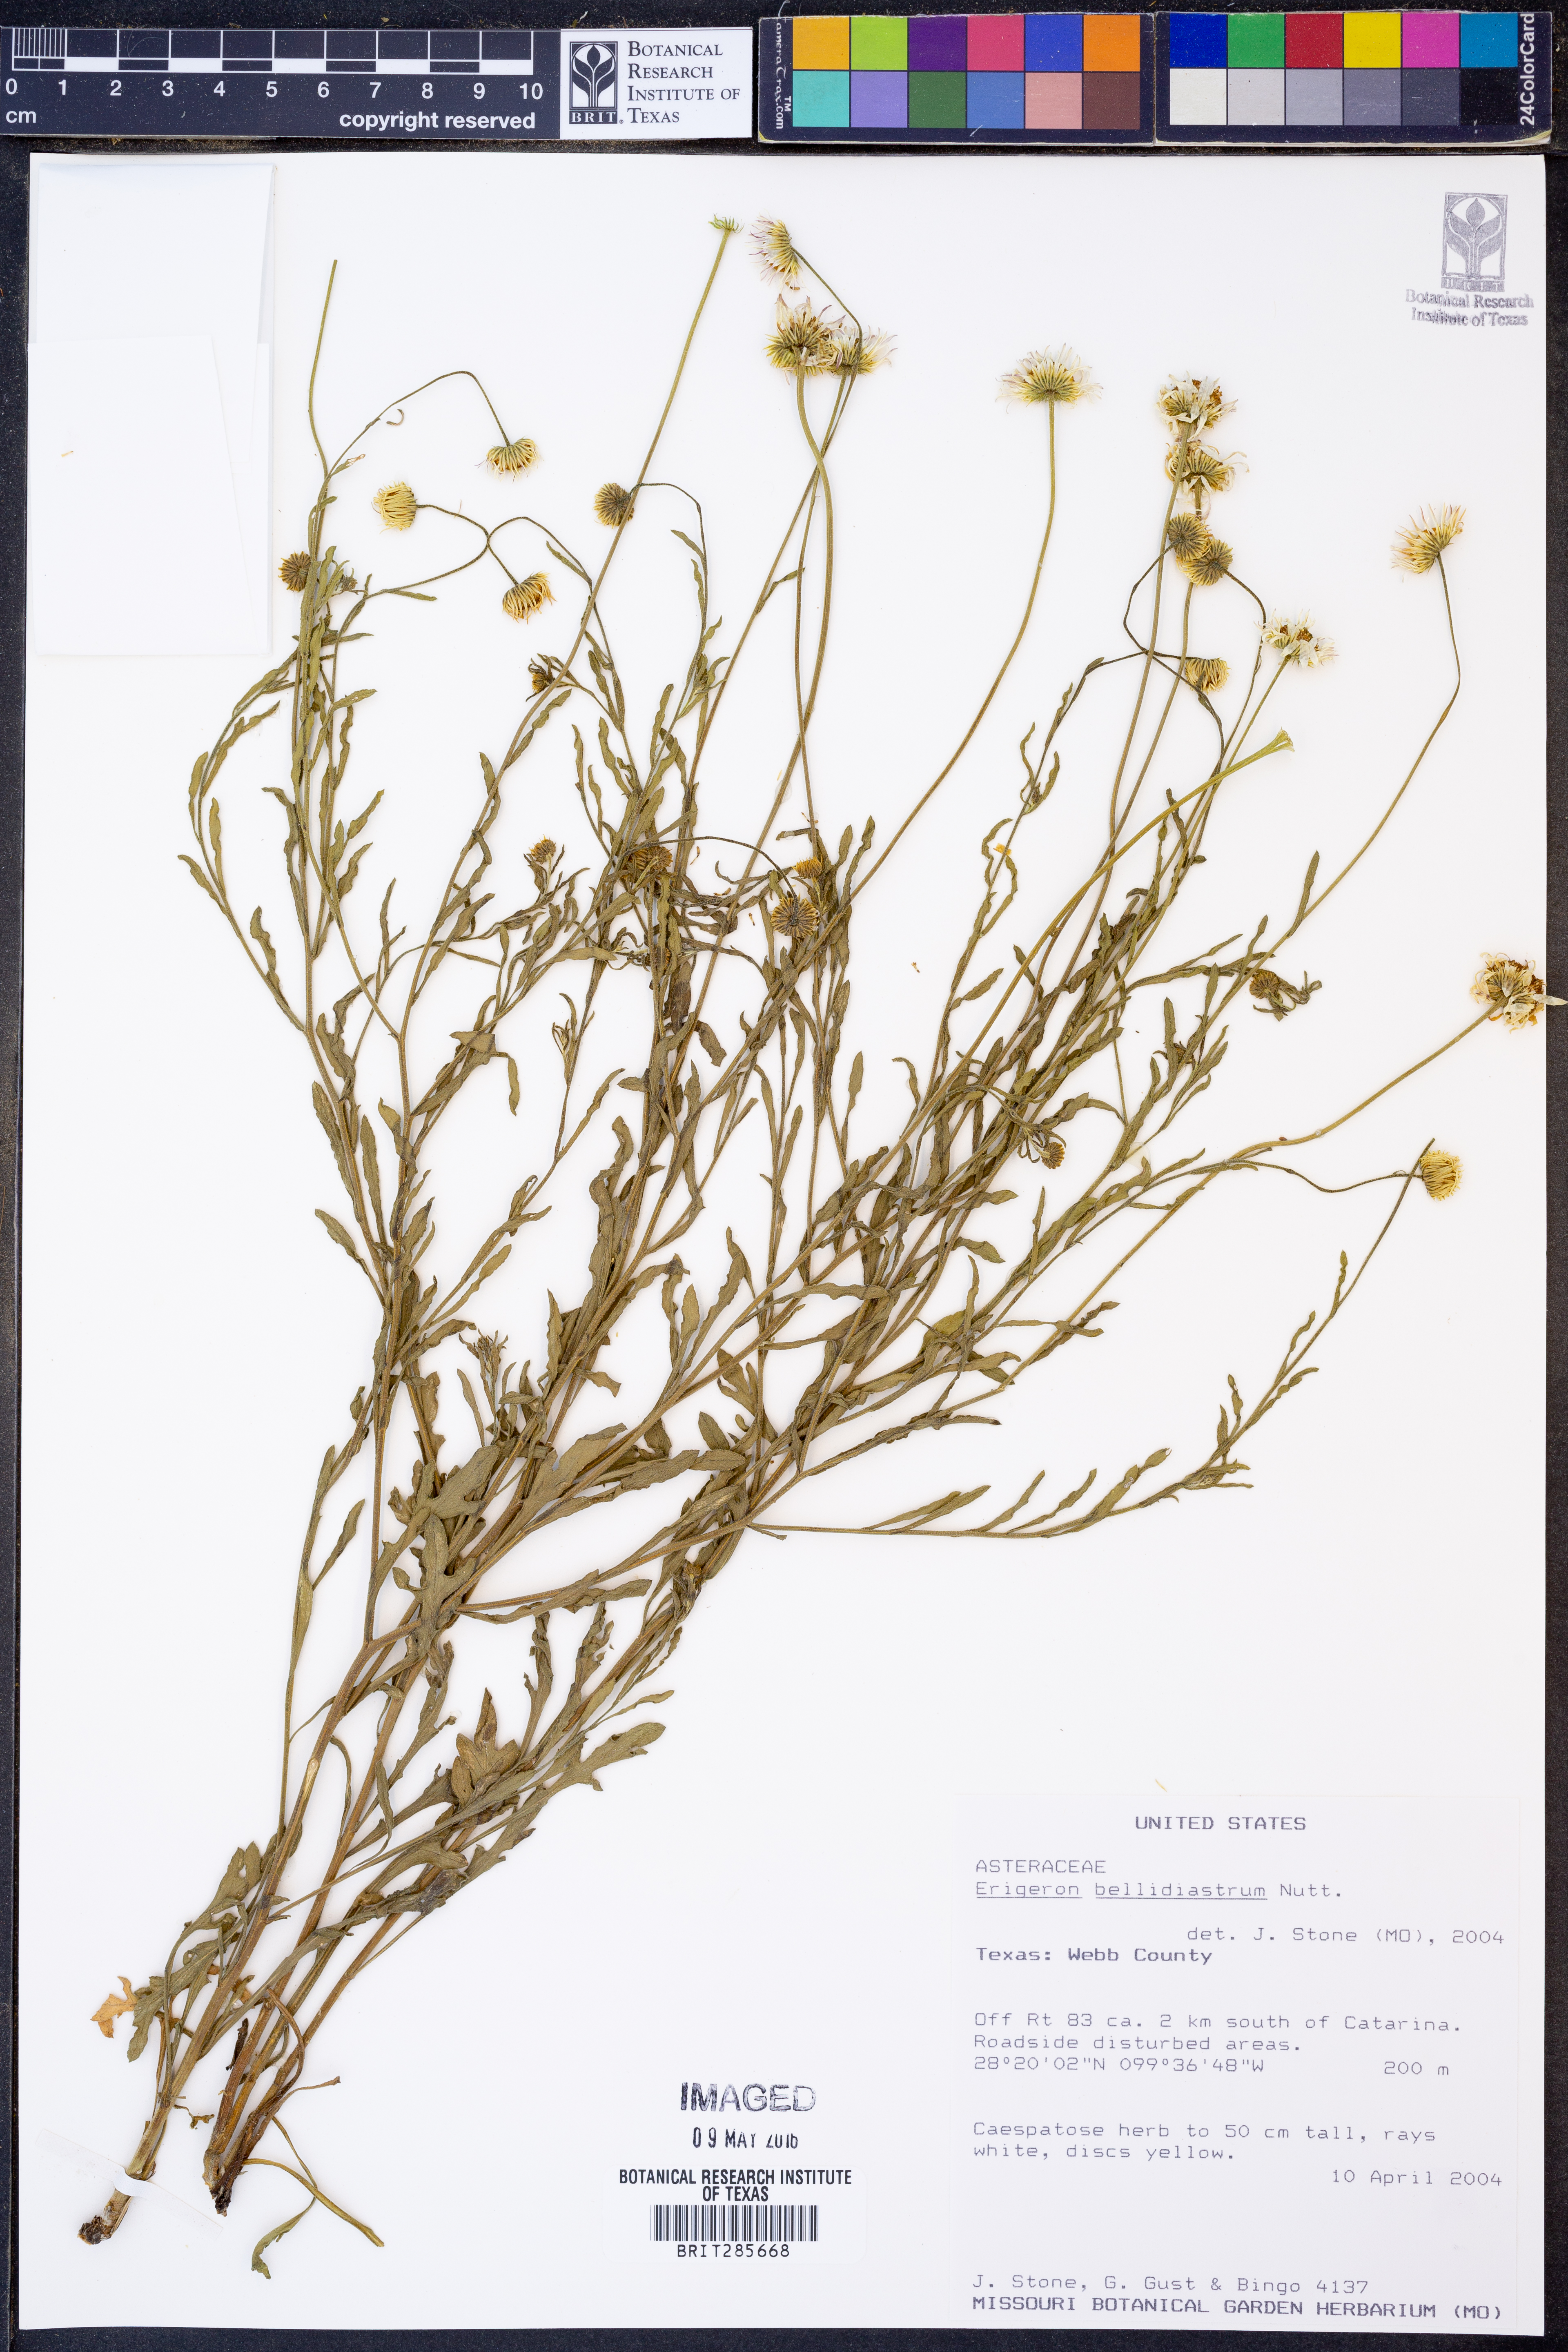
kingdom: Plantae
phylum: Tracheophyta
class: Magnoliopsida
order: Asterales
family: Asteraceae
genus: Erigeron
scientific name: Erigeron bellidiastrum
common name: Sand fleabane
